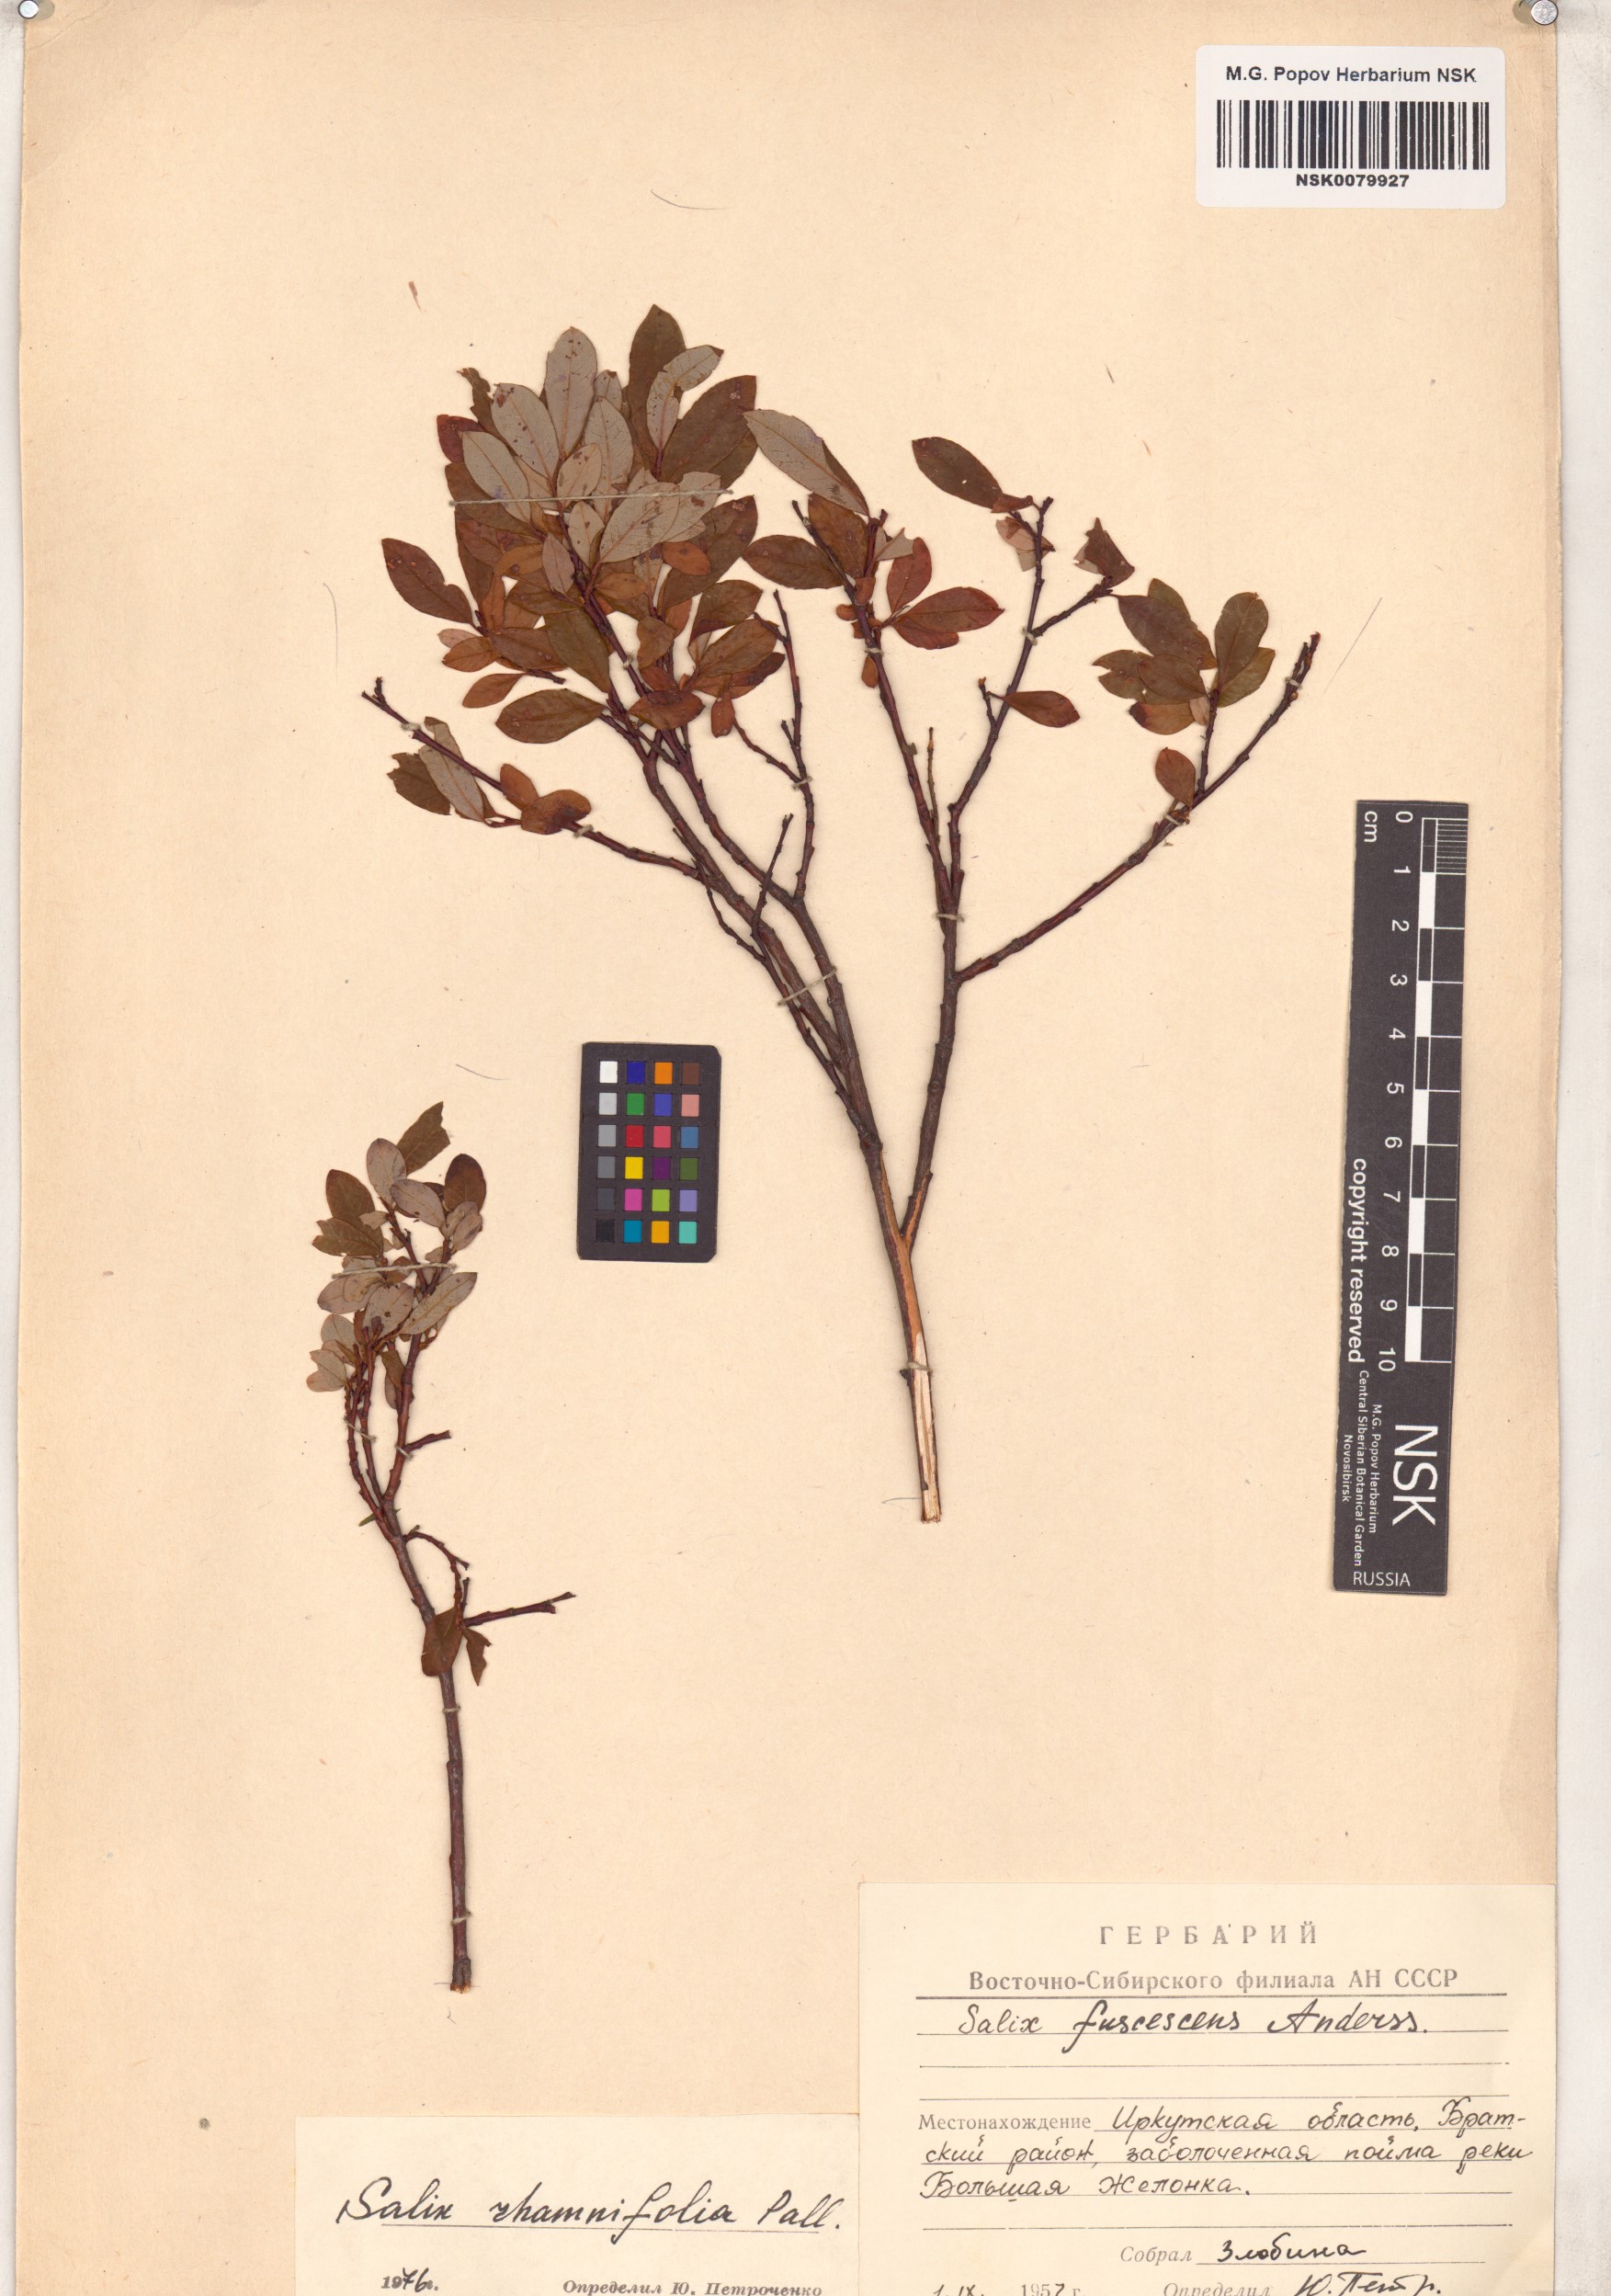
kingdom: Plantae
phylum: Tracheophyta
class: Magnoliopsida
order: Malpighiales
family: Salicaceae
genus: Salix
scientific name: Salix rhamnifolia
